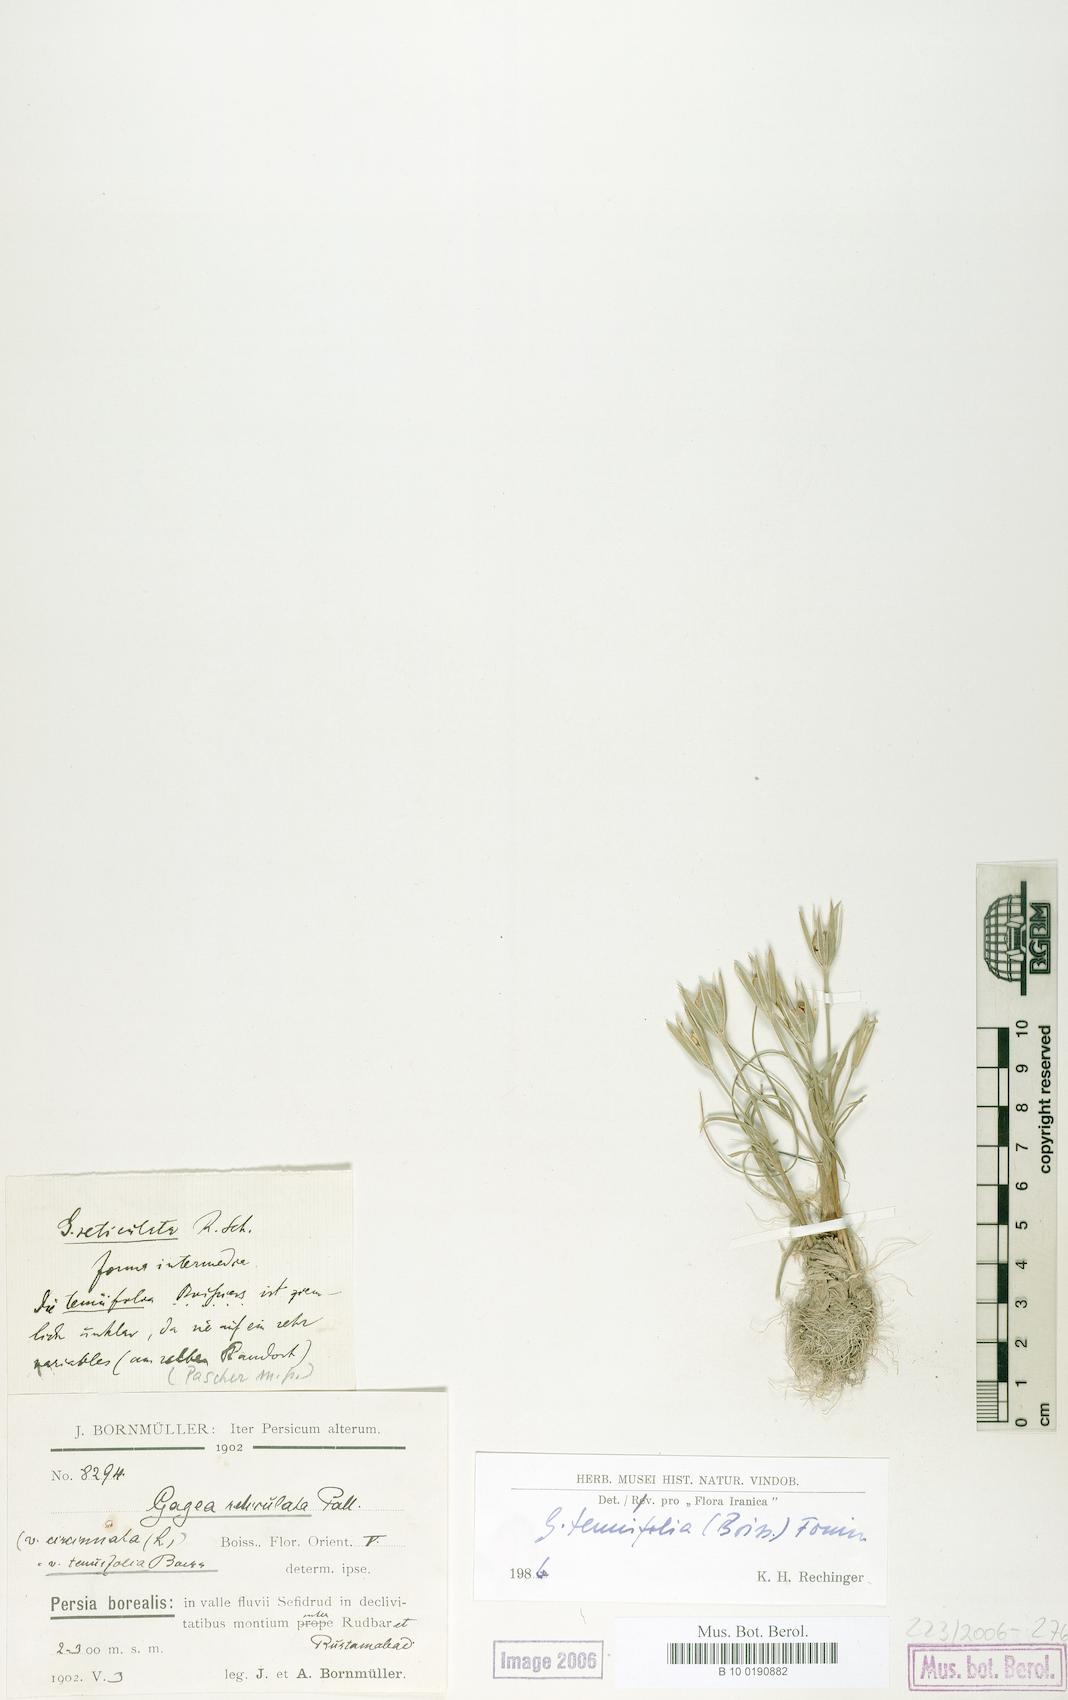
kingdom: Plantae
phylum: Tracheophyta
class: Liliopsida
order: Liliales
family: Liliaceae
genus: Gagea
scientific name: Gagea reticulata
